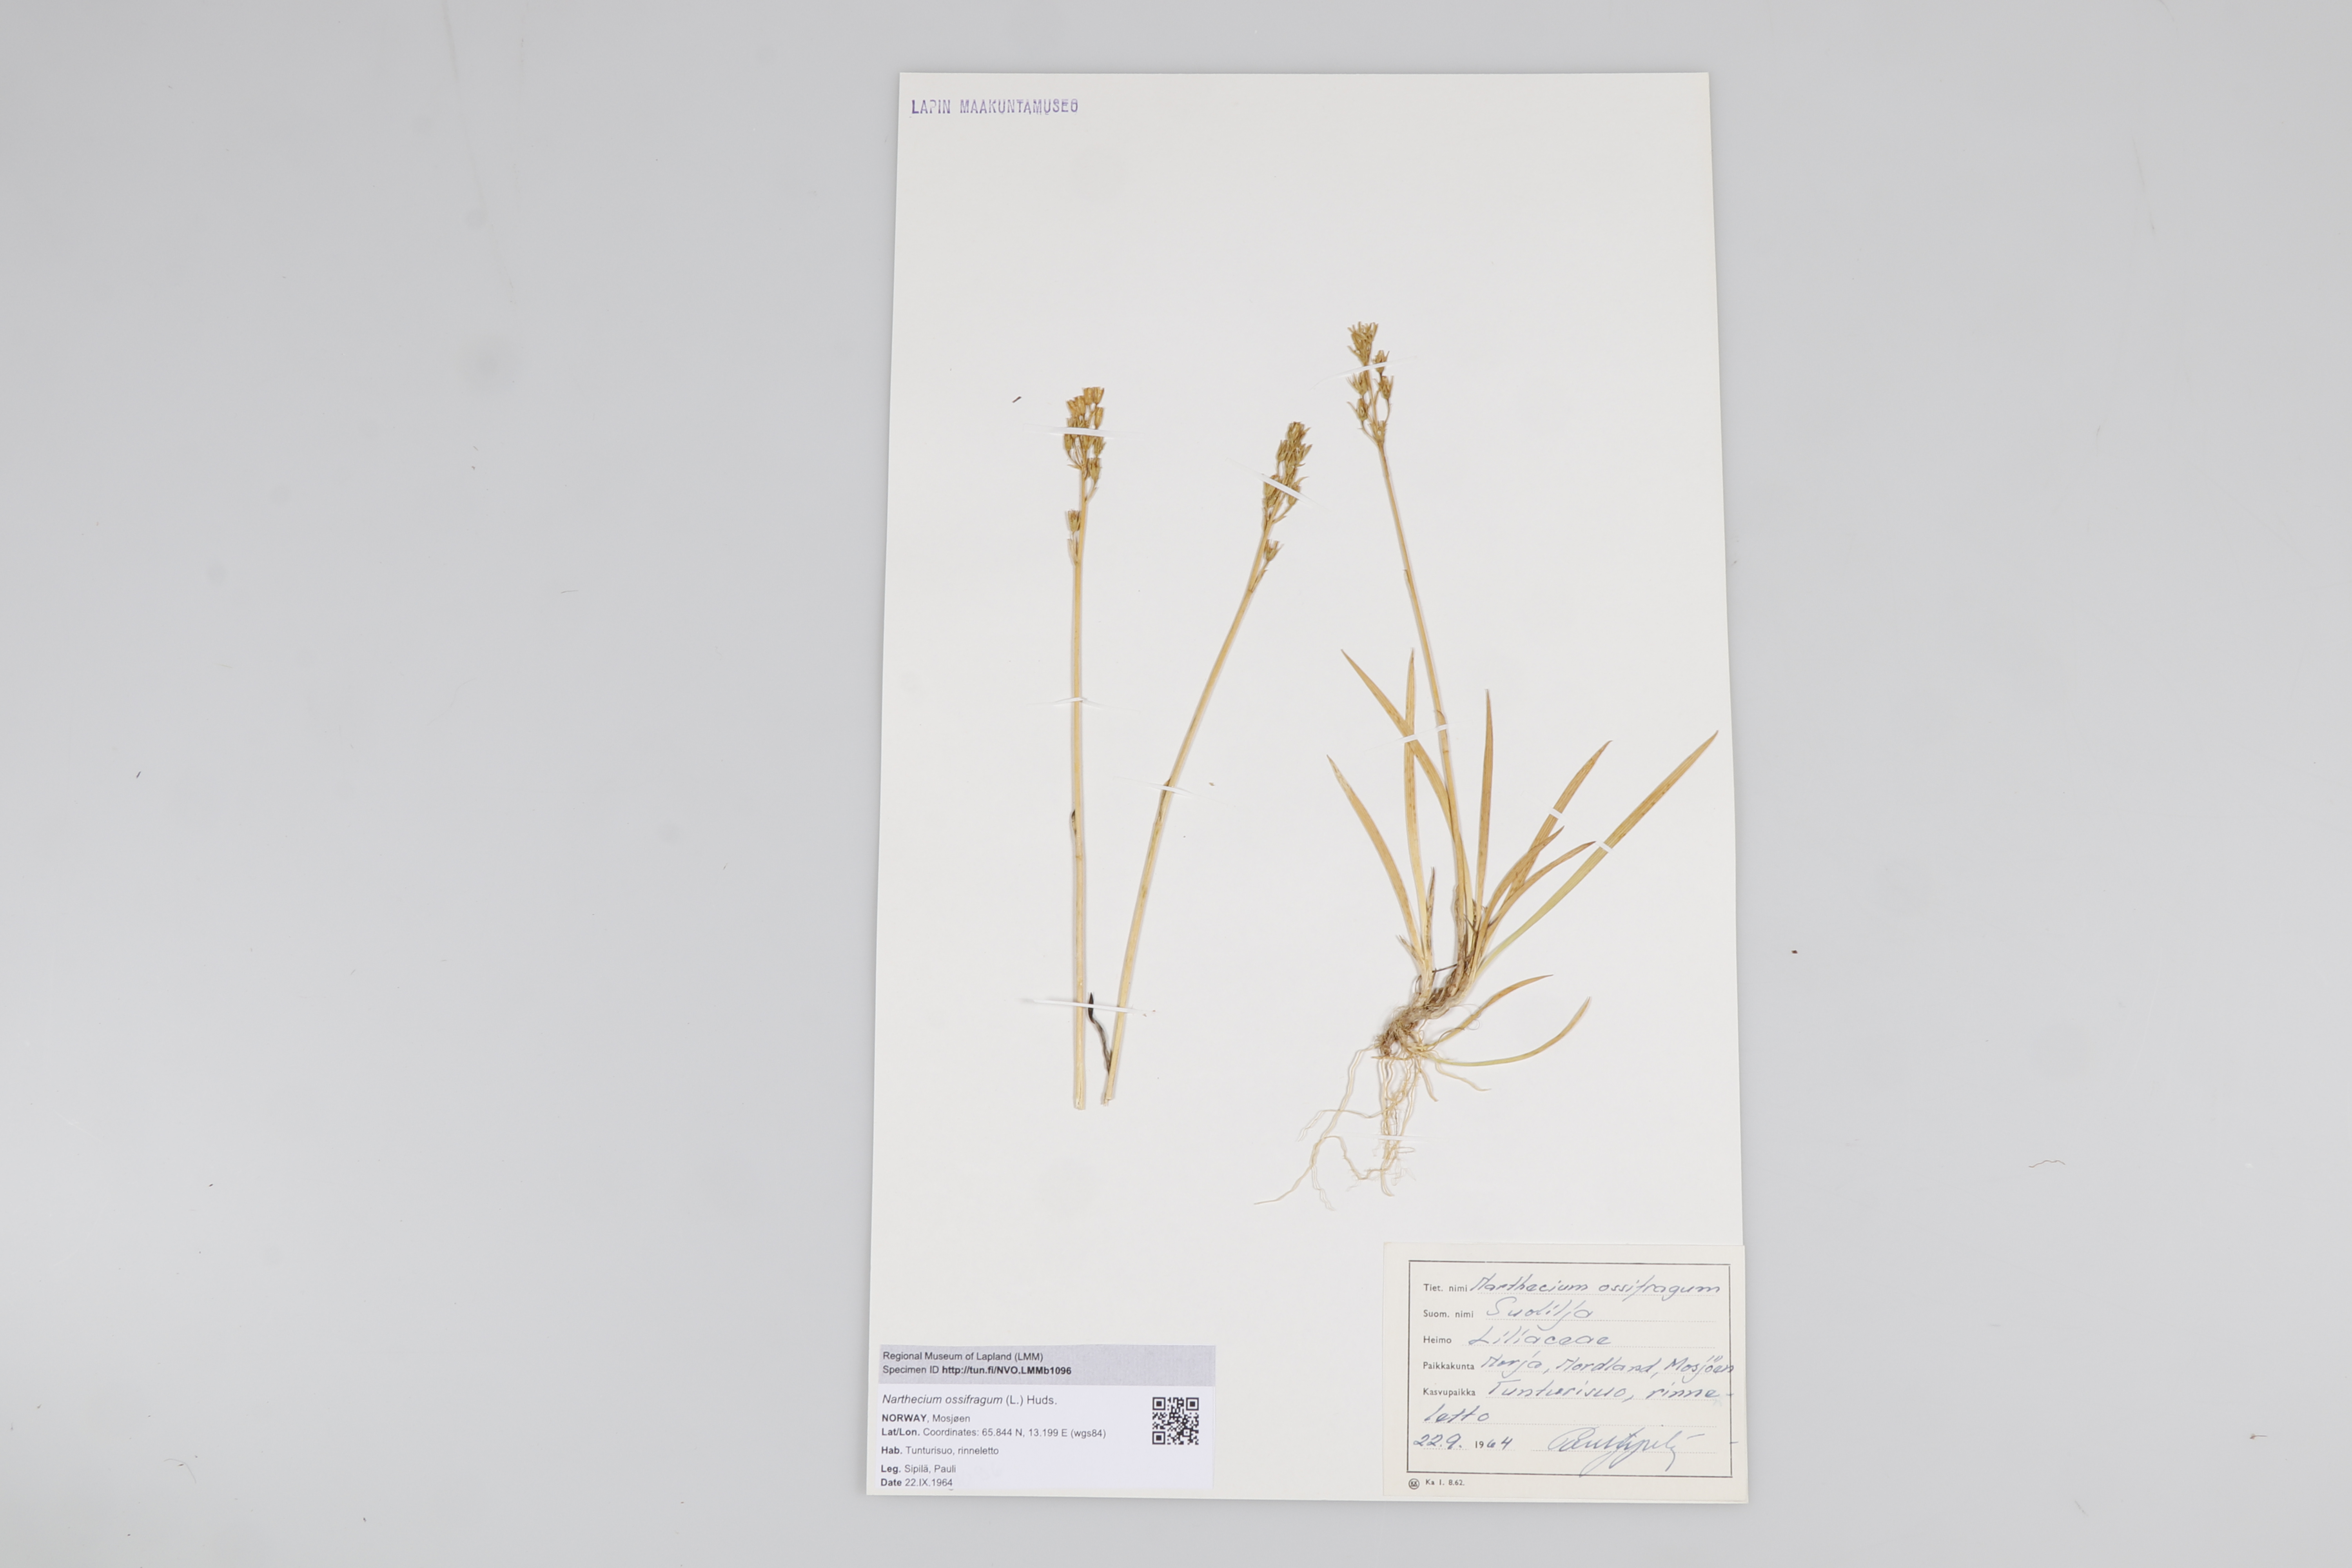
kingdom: Plantae
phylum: Tracheophyta
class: Liliopsida
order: Dioscoreales
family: Nartheciaceae
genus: Narthecium
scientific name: Narthecium ossifragum
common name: Bog asphodel
